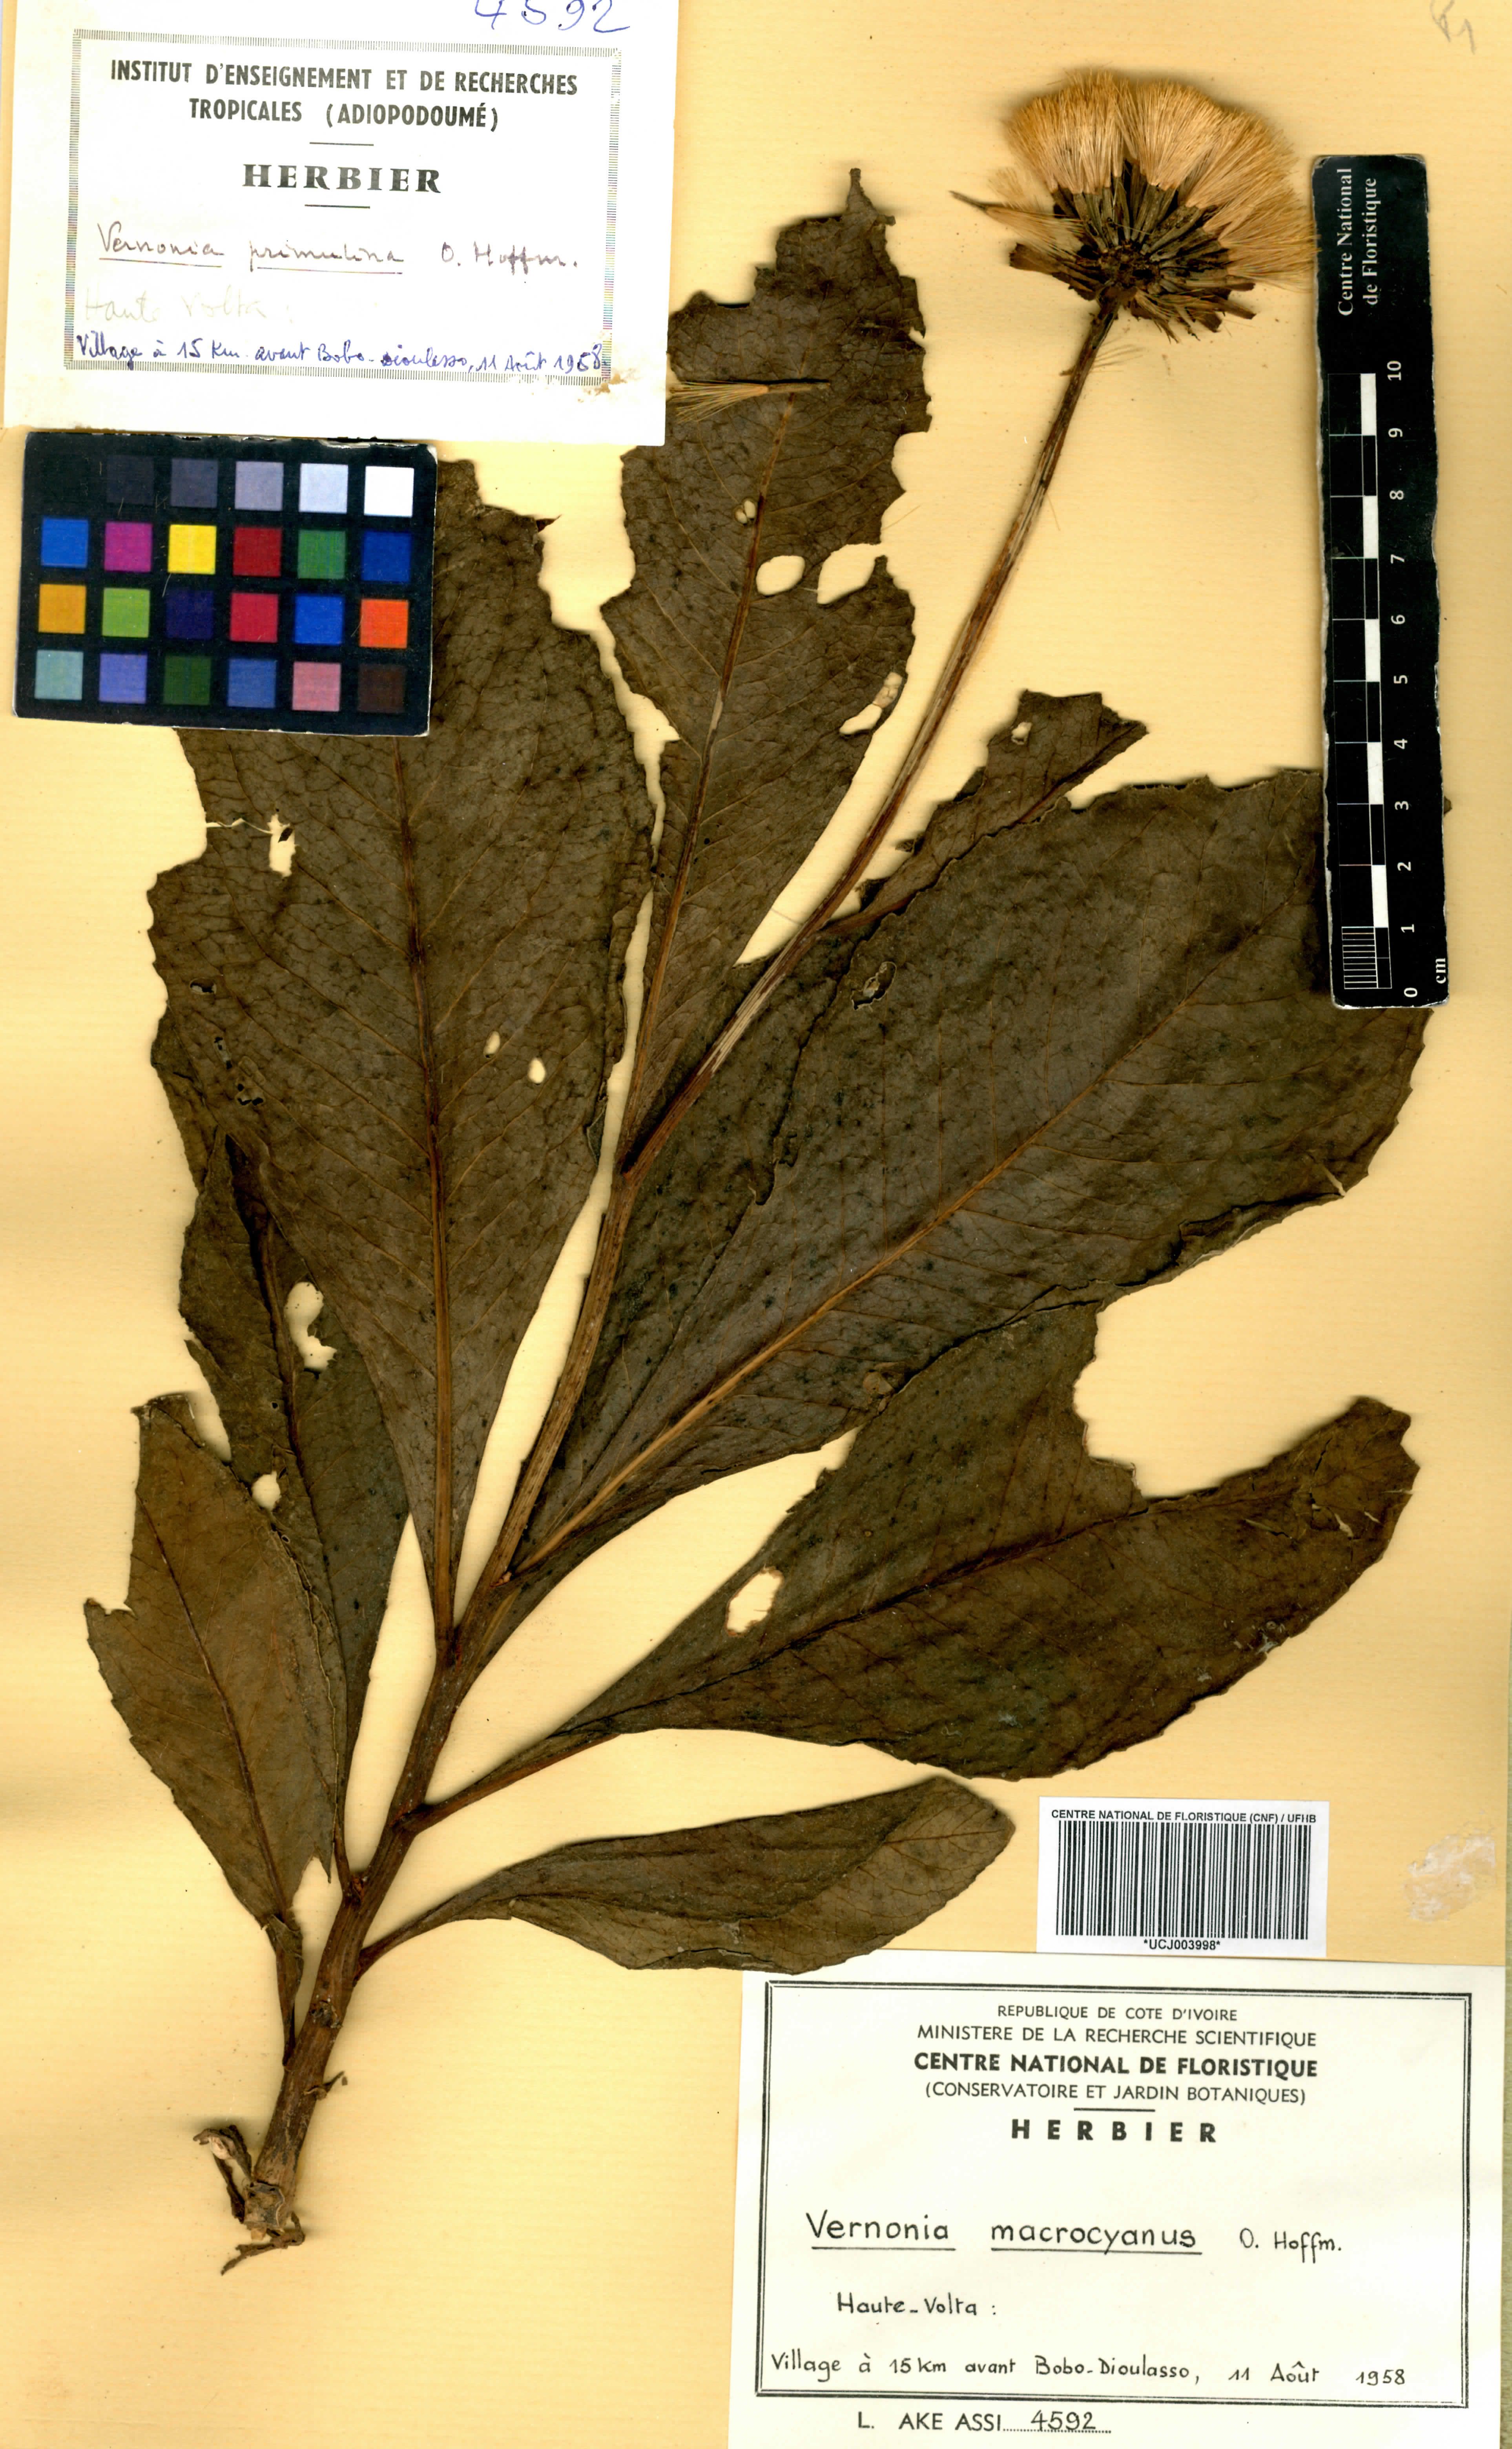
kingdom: Plantae
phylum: Tracheophyta
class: Magnoliopsida
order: Asterales
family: Asteraceae
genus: Linzia
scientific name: Linzia gerberiformis
